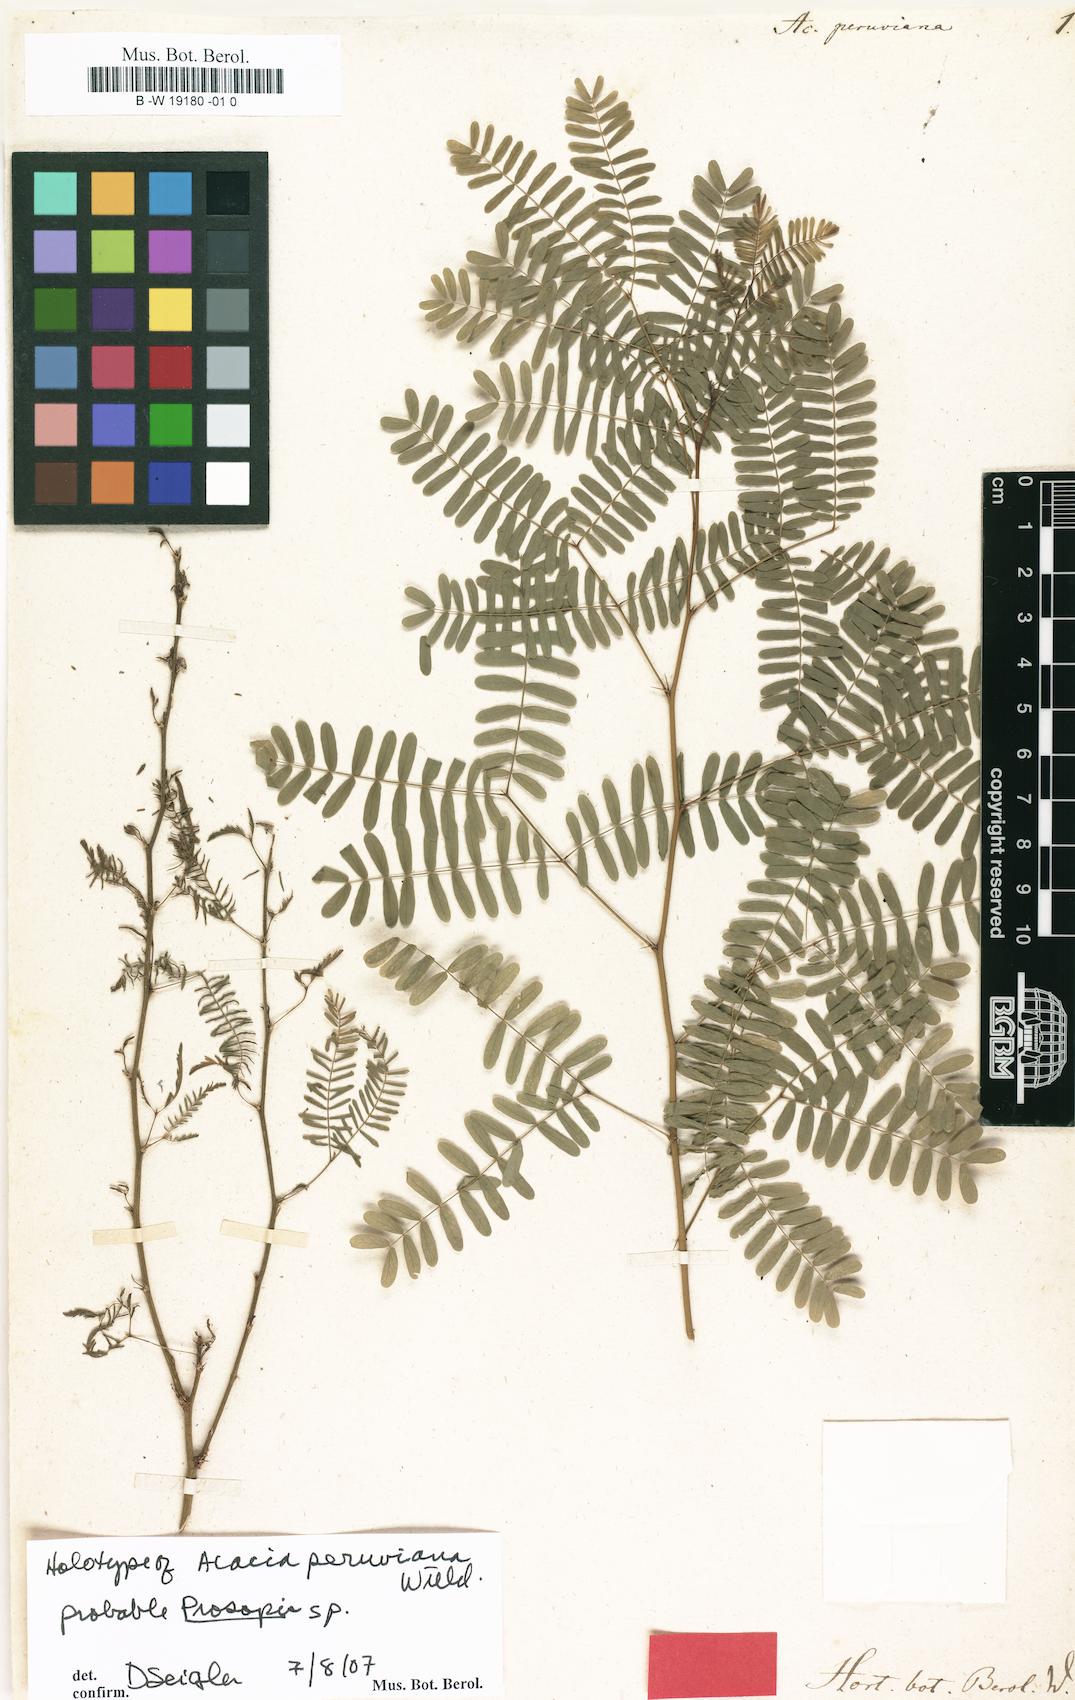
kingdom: Plantae
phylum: Tracheophyta
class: Magnoliopsida
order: Fabales
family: Fabaceae
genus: Acacia
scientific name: Acacia peruviana
